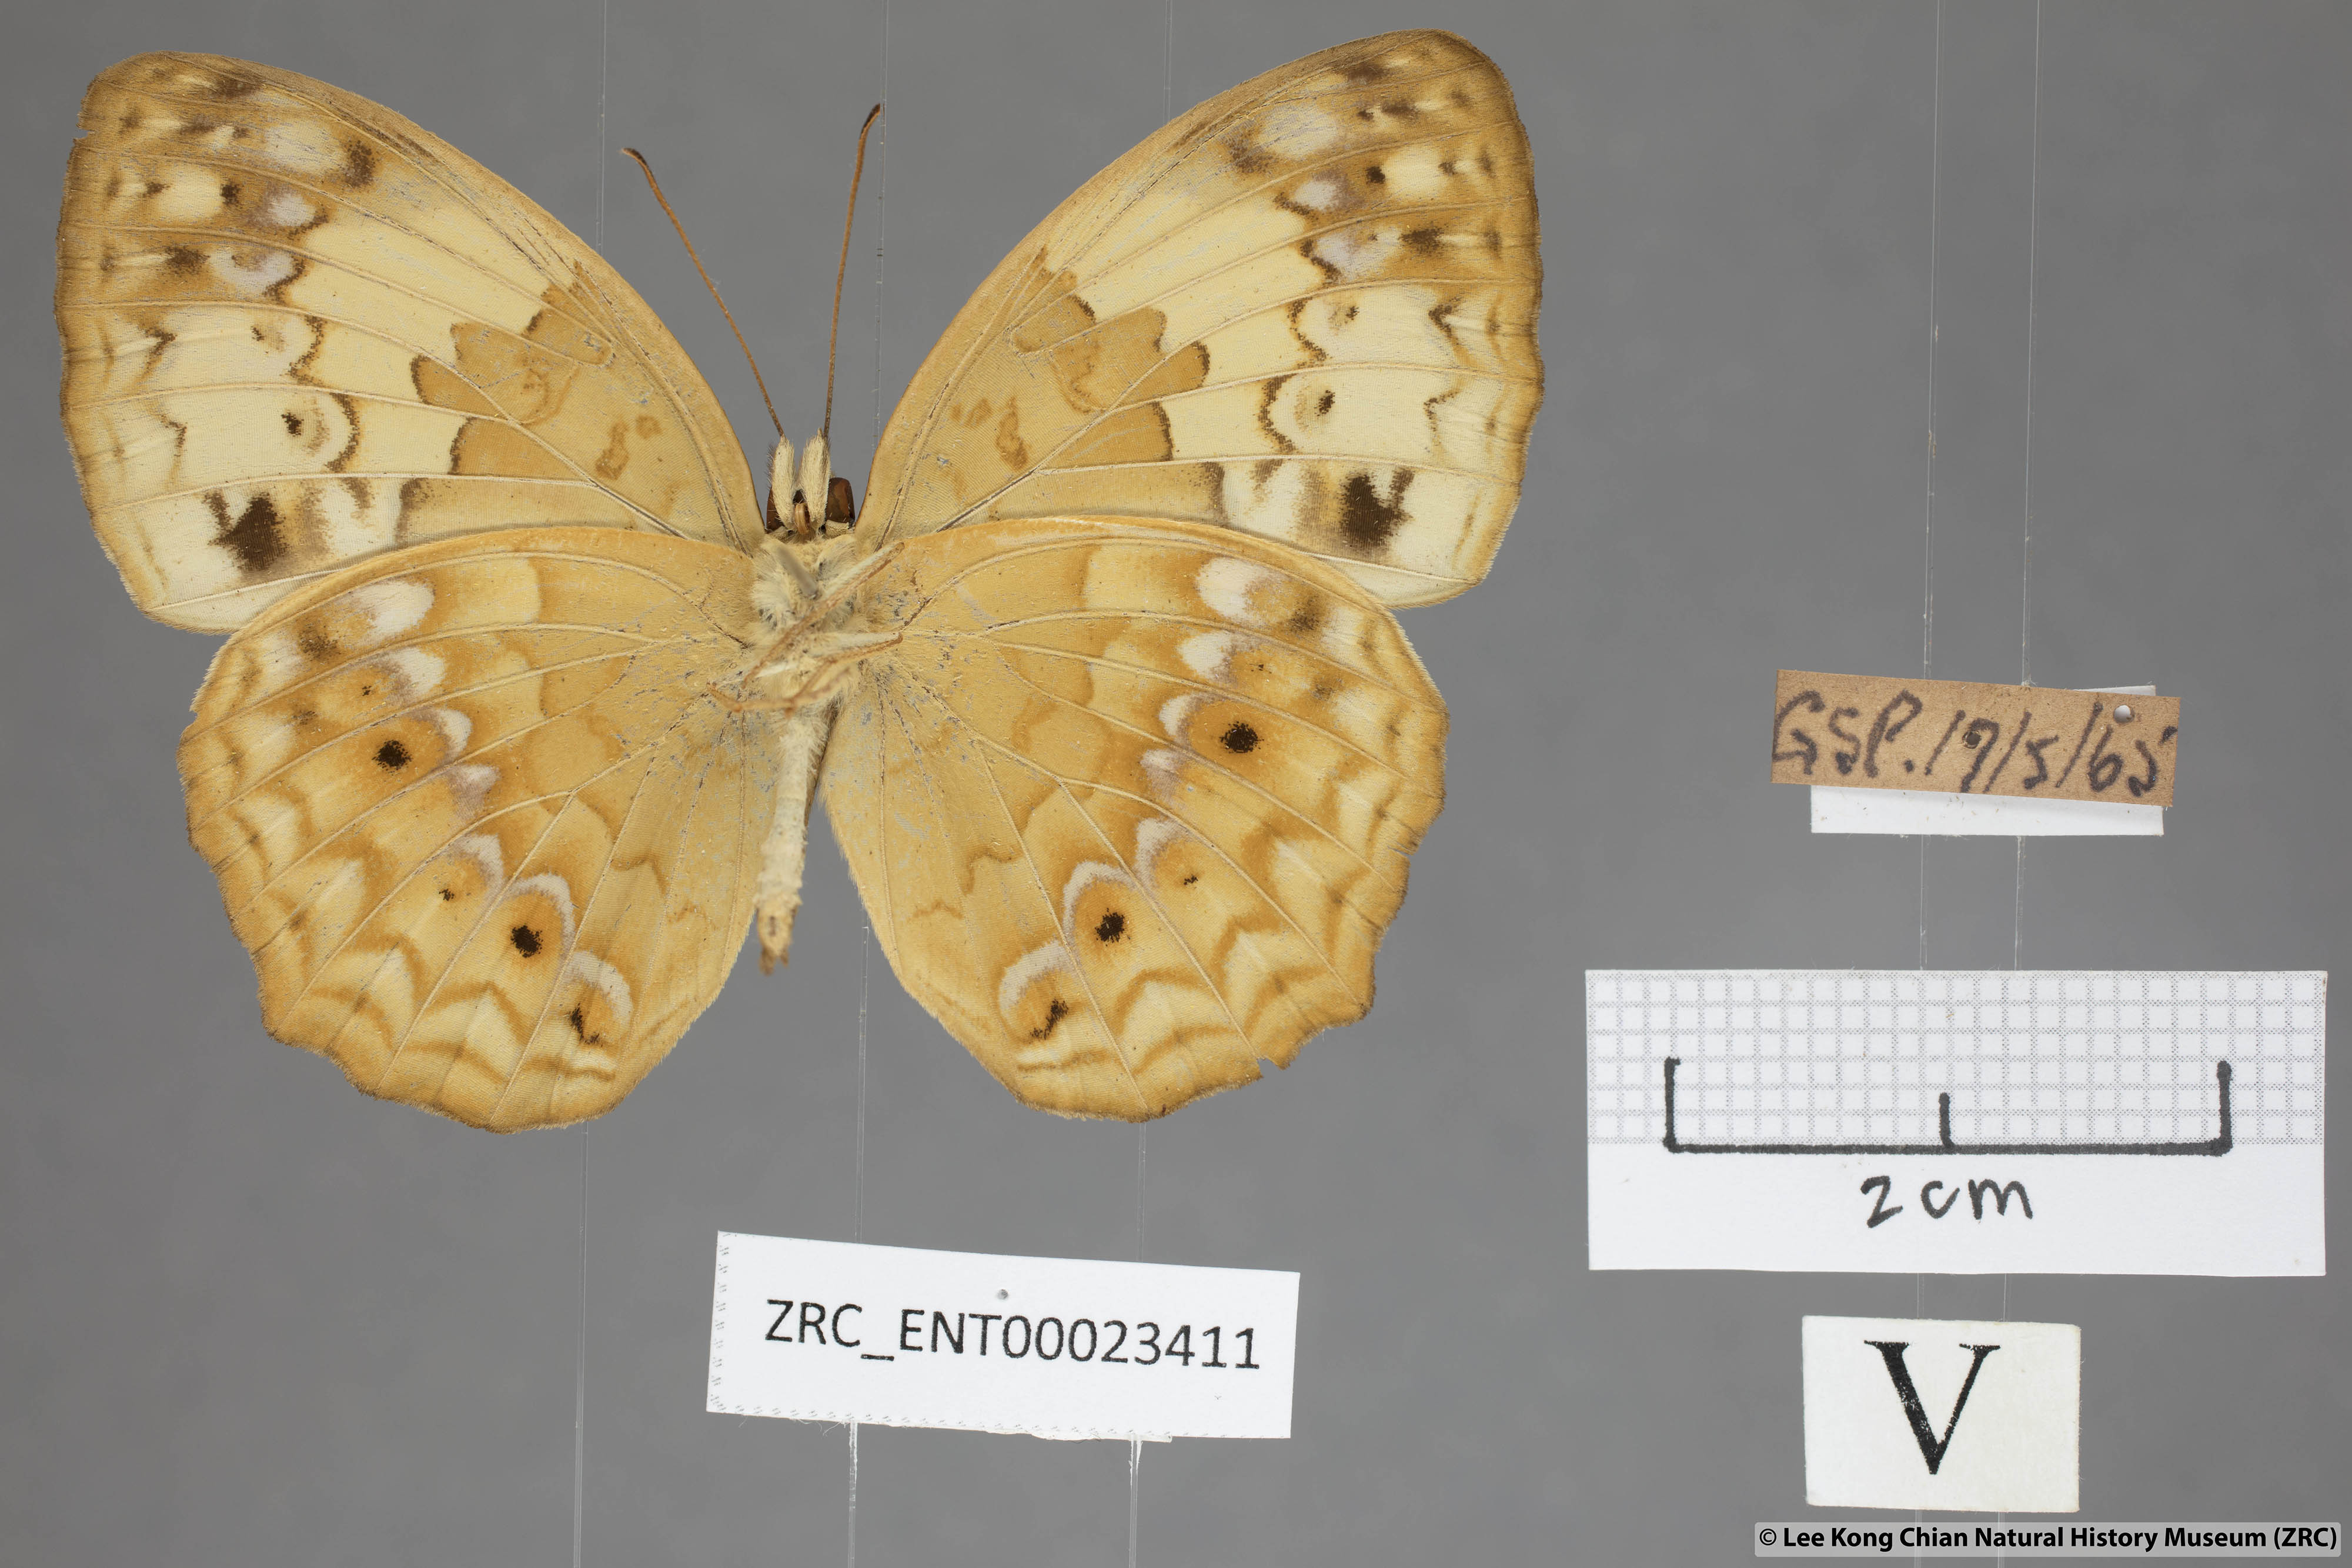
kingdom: Animalia
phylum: Arthropoda
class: Insecta
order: Lepidoptera
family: Nymphalidae
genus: Cupha
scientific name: Cupha erymanthis
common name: Rustic
